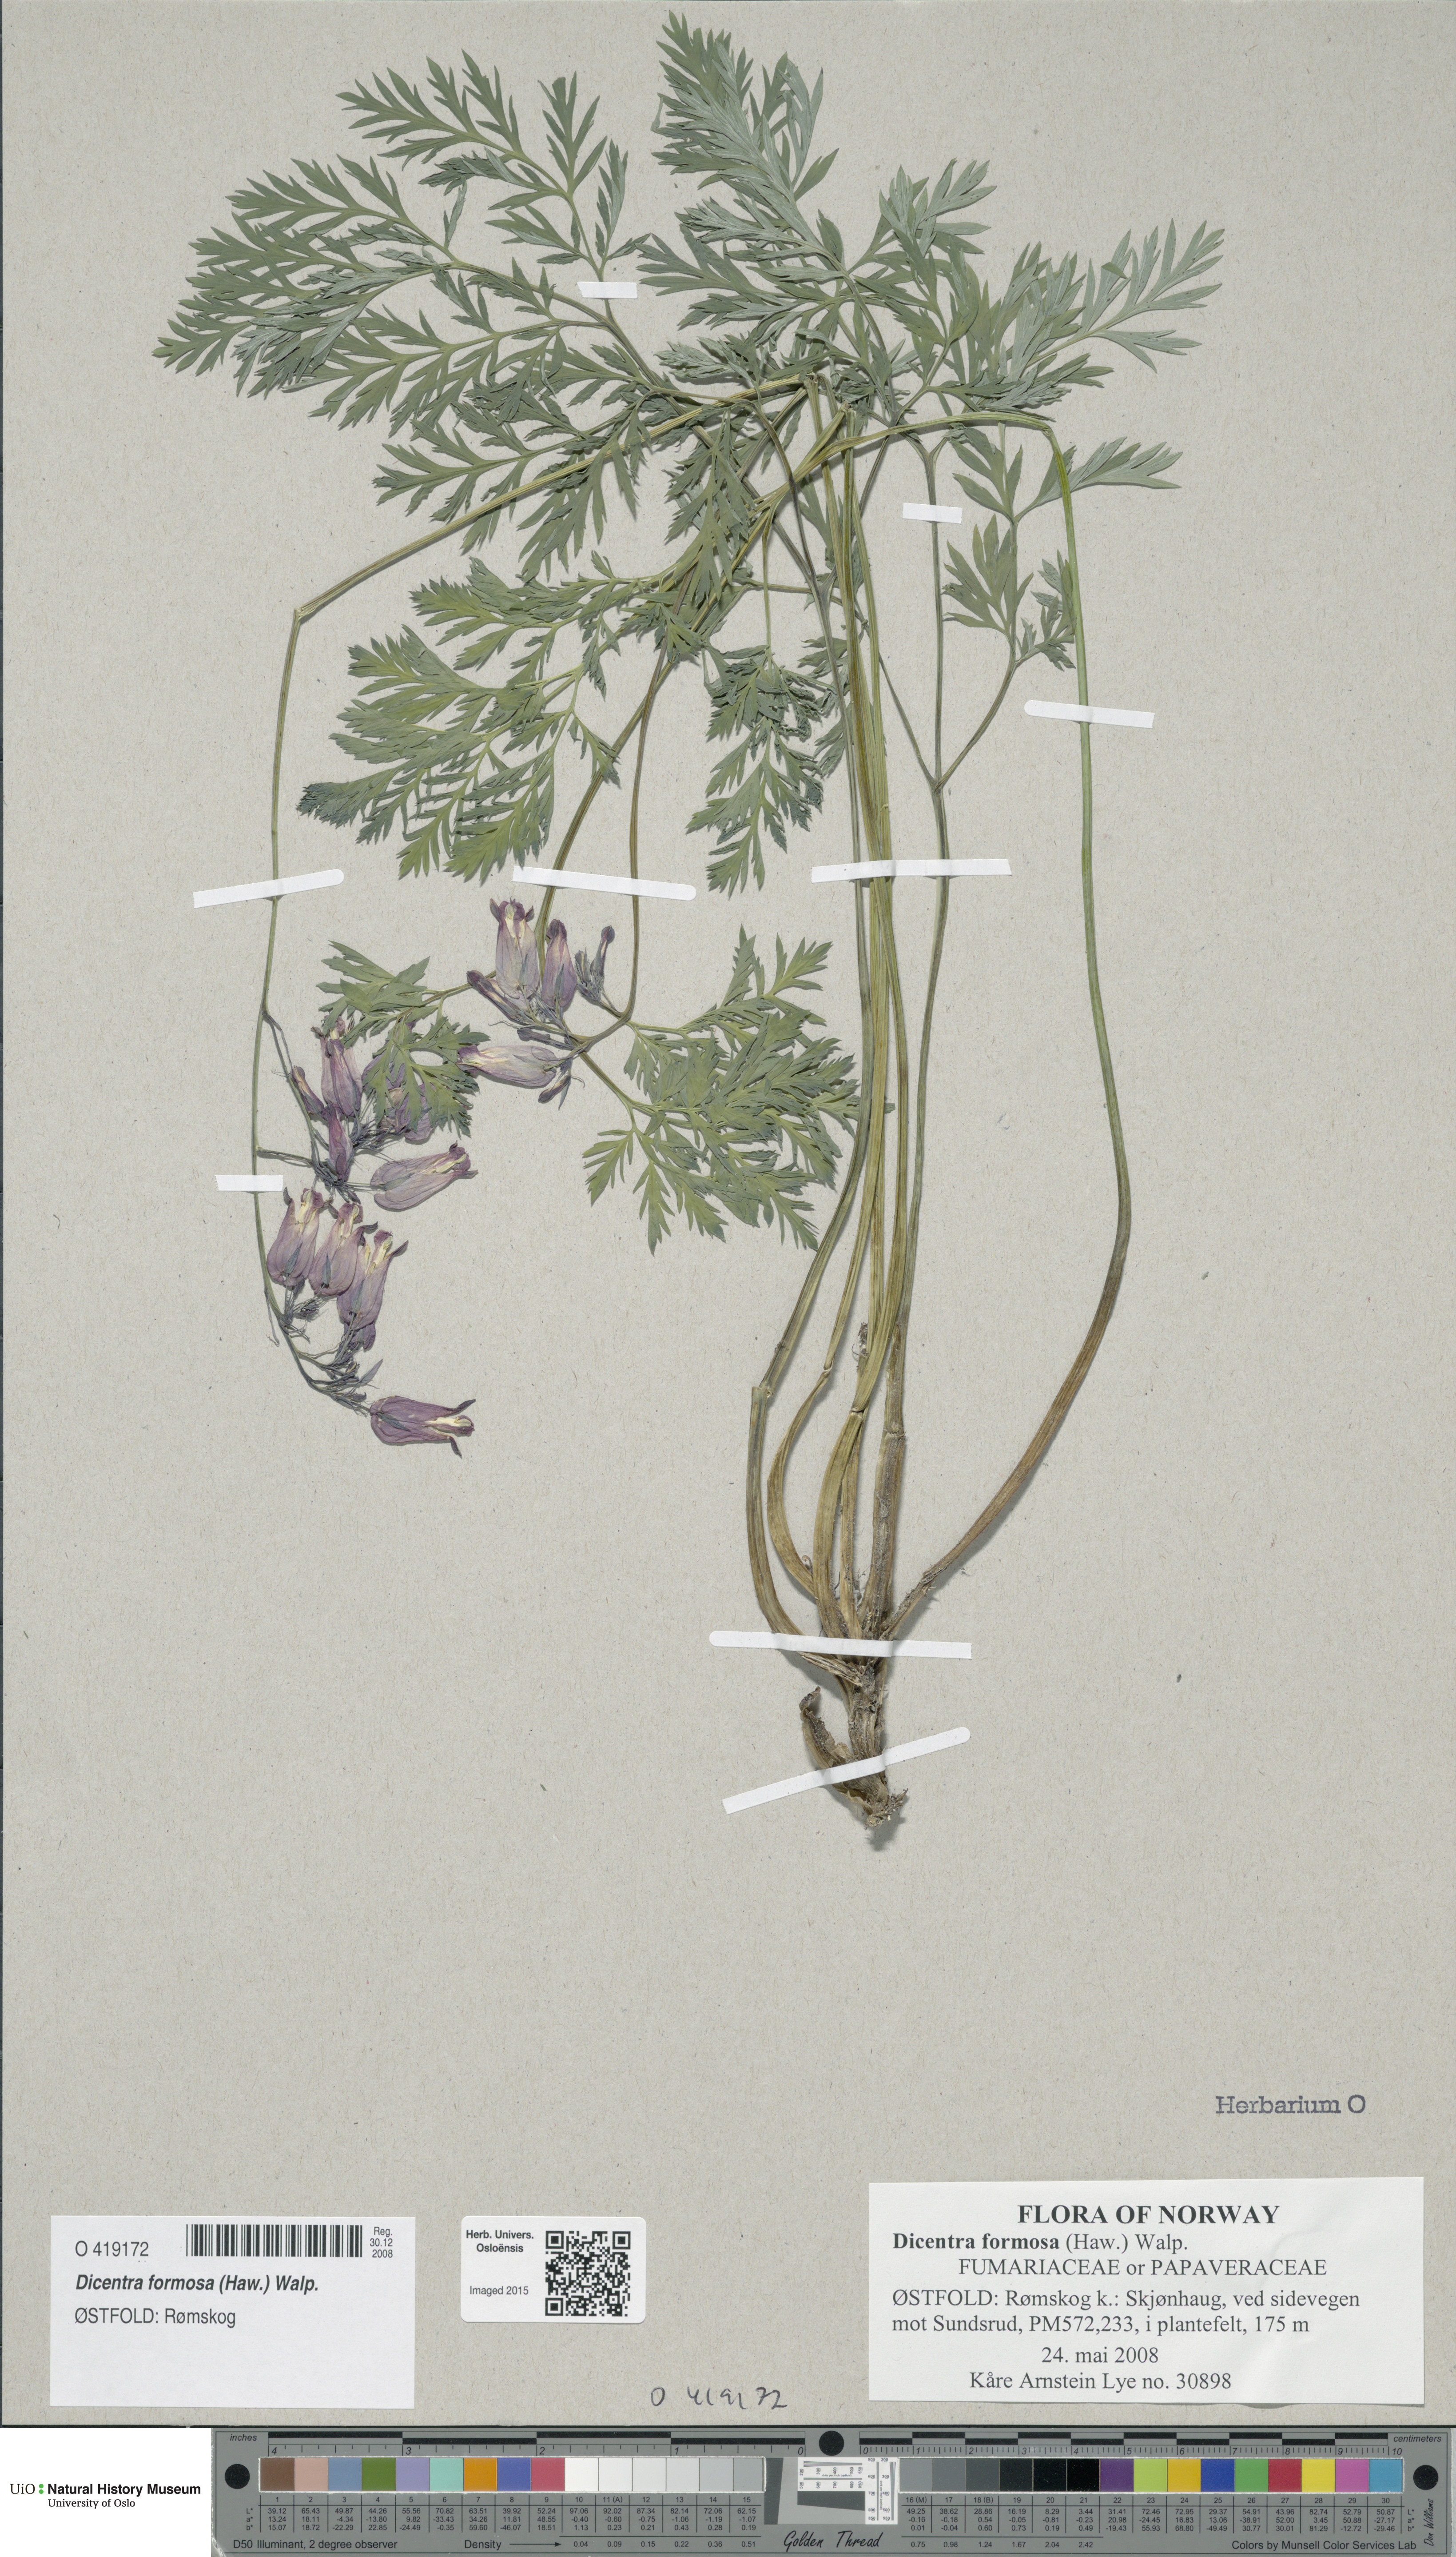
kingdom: Plantae
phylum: Tracheophyta
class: Magnoliopsida
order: Ranunculales
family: Papaveraceae
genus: Dicentra
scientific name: Dicentra formosa
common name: Bleeding-heart
